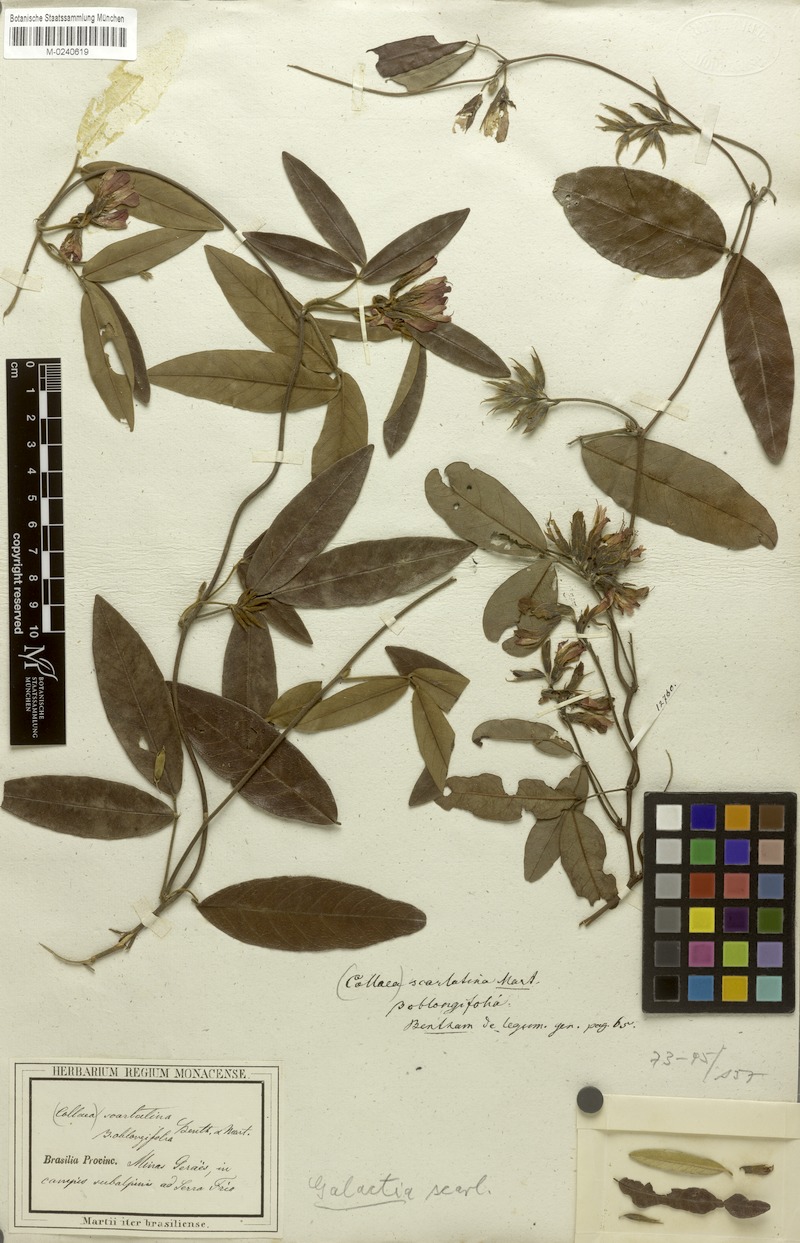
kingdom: Plantae
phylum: Tracheophyta
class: Magnoliopsida
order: Fabales
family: Fabaceae
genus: Betencourtia
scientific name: Betencourtia scarlatina
